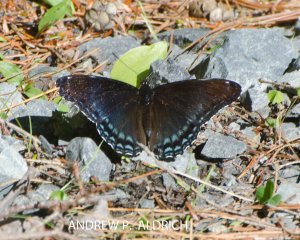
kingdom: Animalia
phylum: Arthropoda
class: Insecta
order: Lepidoptera
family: Nymphalidae
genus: Limenitis
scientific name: Limenitis astyanax
